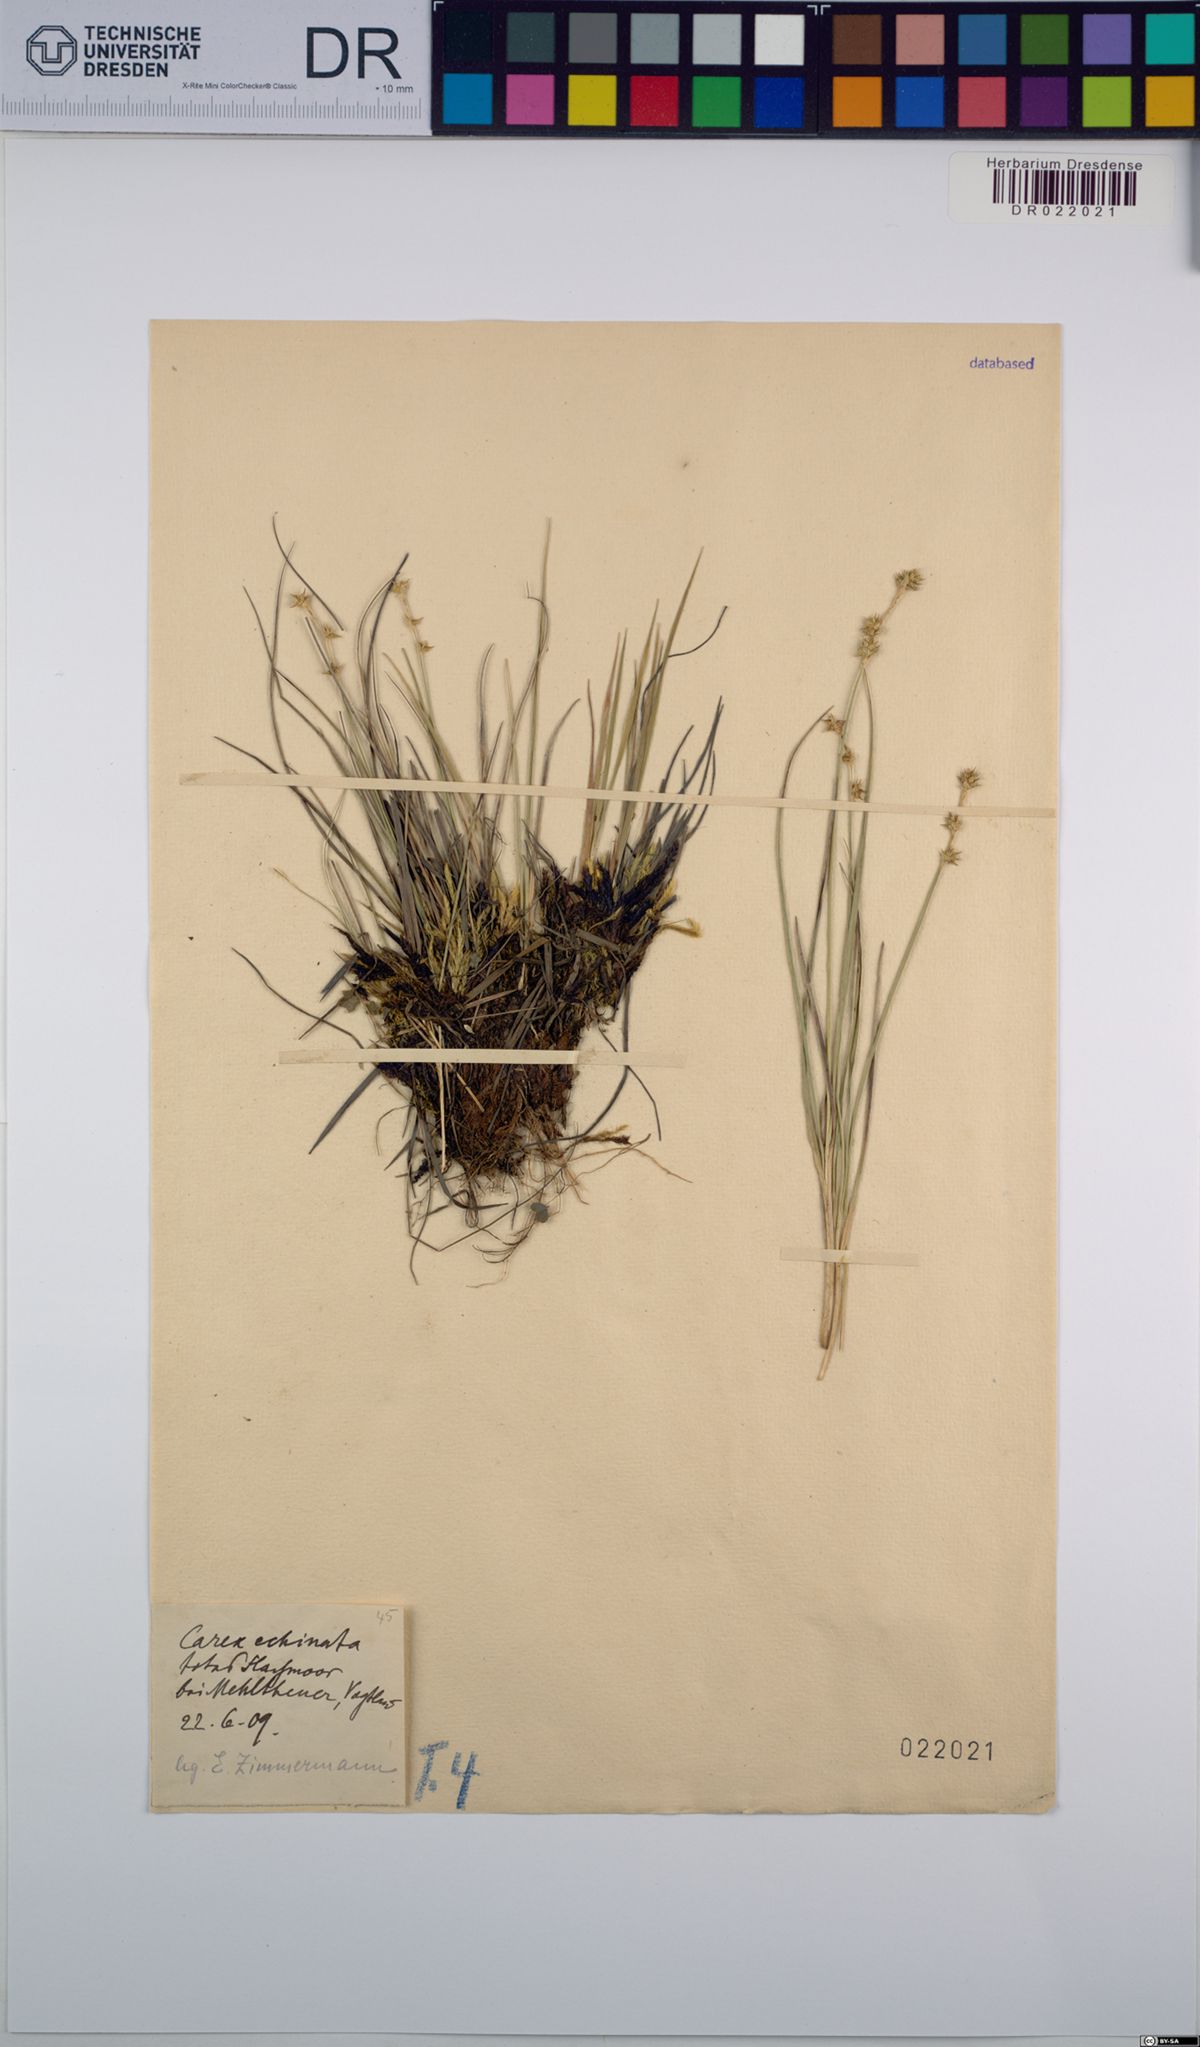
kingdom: Plantae
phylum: Tracheophyta
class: Liliopsida
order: Poales
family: Cyperaceae
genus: Carex
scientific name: Carex echinata
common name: Star sedge
